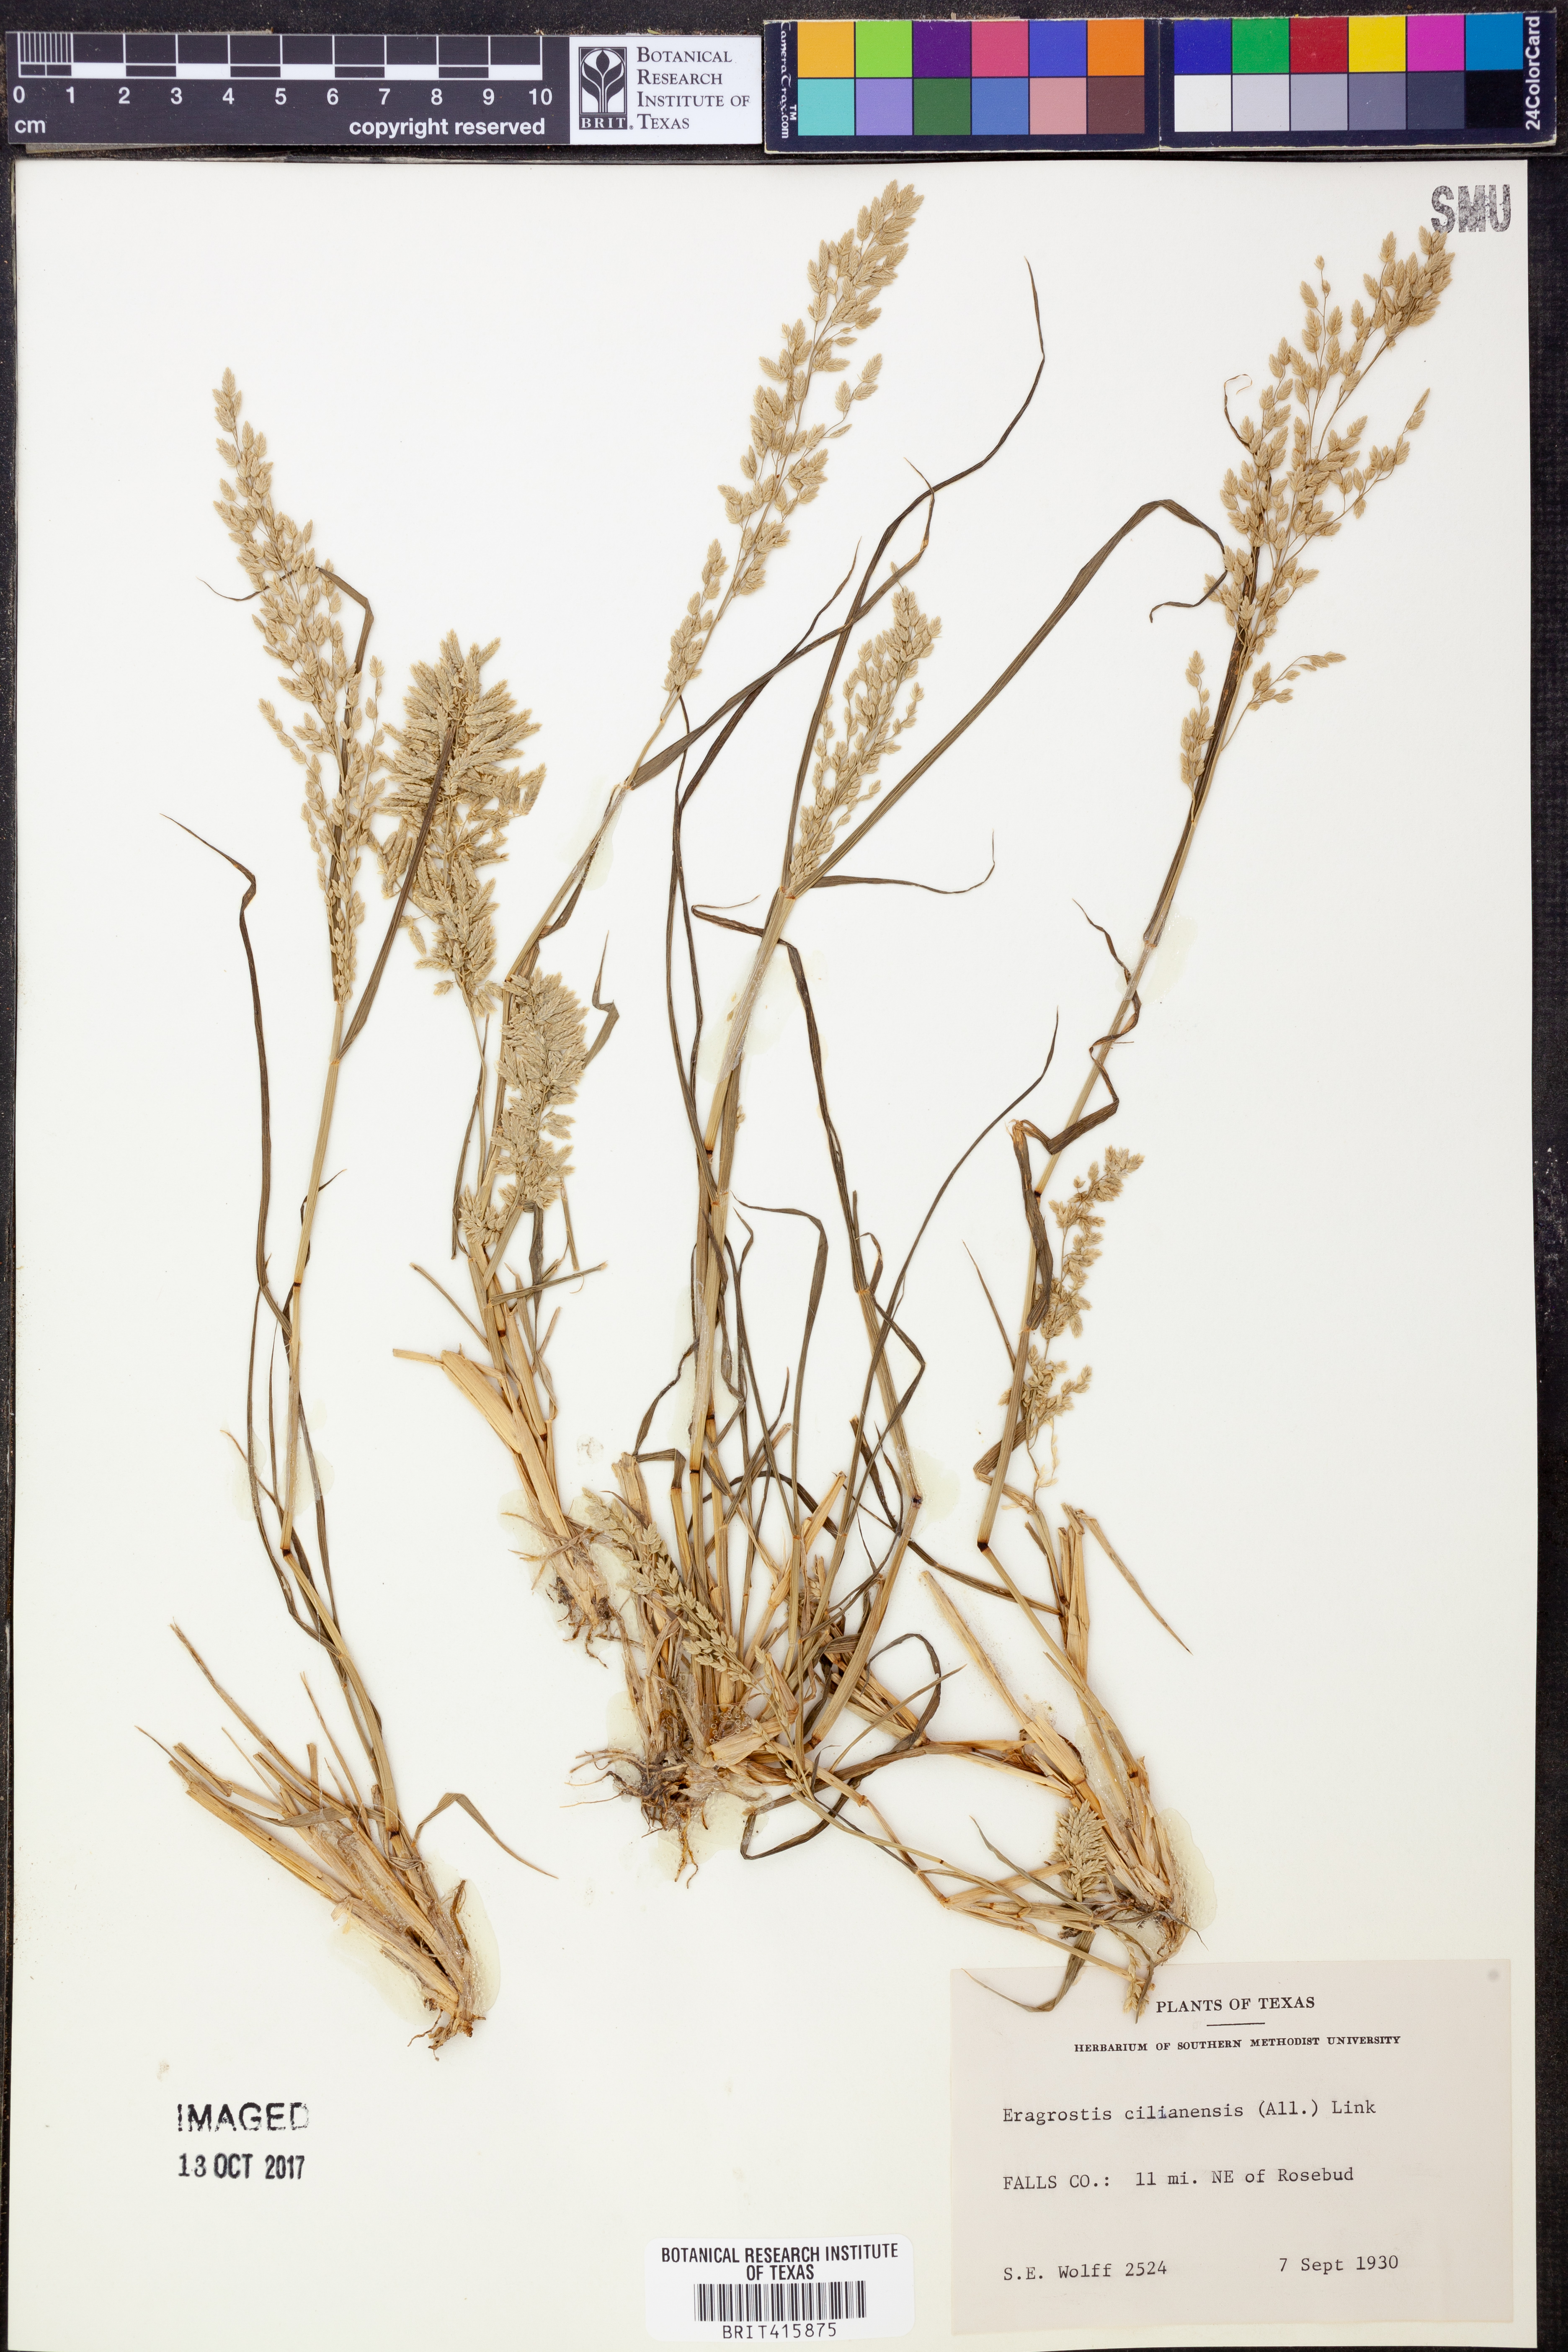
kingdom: Plantae
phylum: Tracheophyta
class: Liliopsida
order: Poales
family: Poaceae
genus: Eragrostis
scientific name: Eragrostis cilianensis
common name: Stinkgrass
